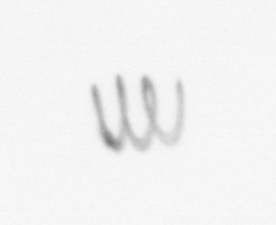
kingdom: Chromista
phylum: Ochrophyta
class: Bacillariophyceae
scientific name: Bacillariophyceae
